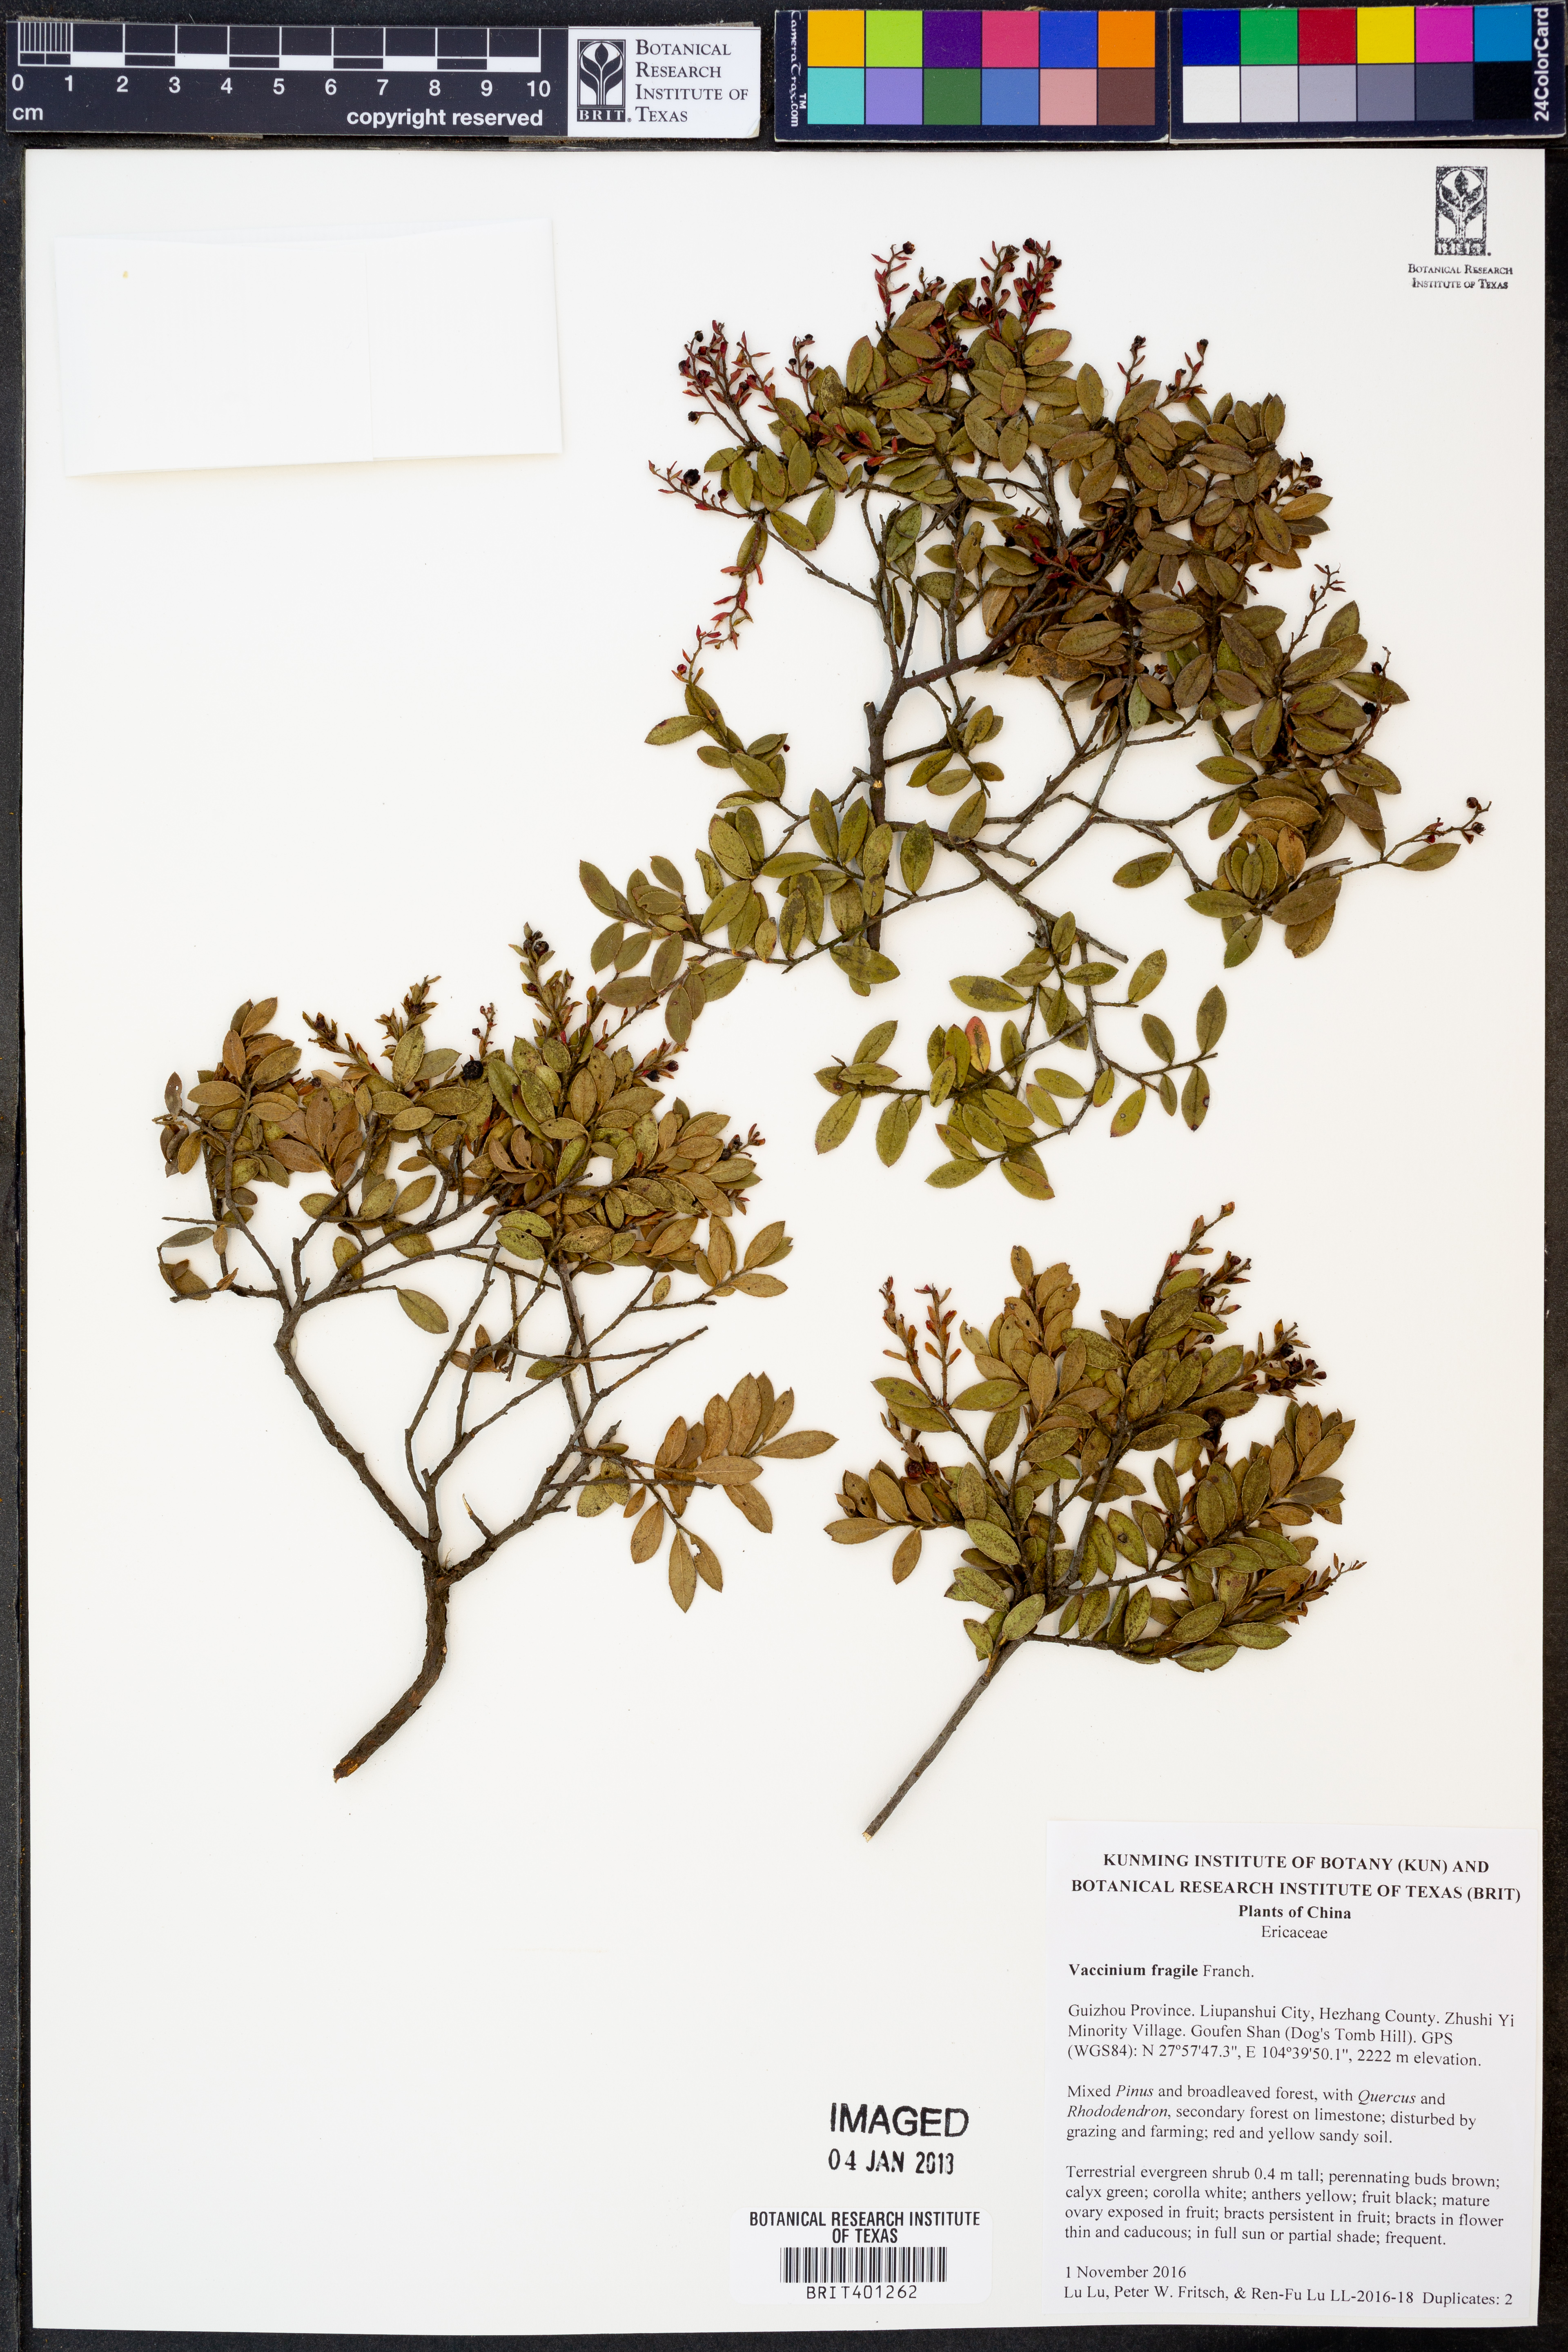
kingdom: Plantae
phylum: Tracheophyta
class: Magnoliopsida
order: Ericales
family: Ericaceae
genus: Vaccinium
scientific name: Vaccinium fragile
